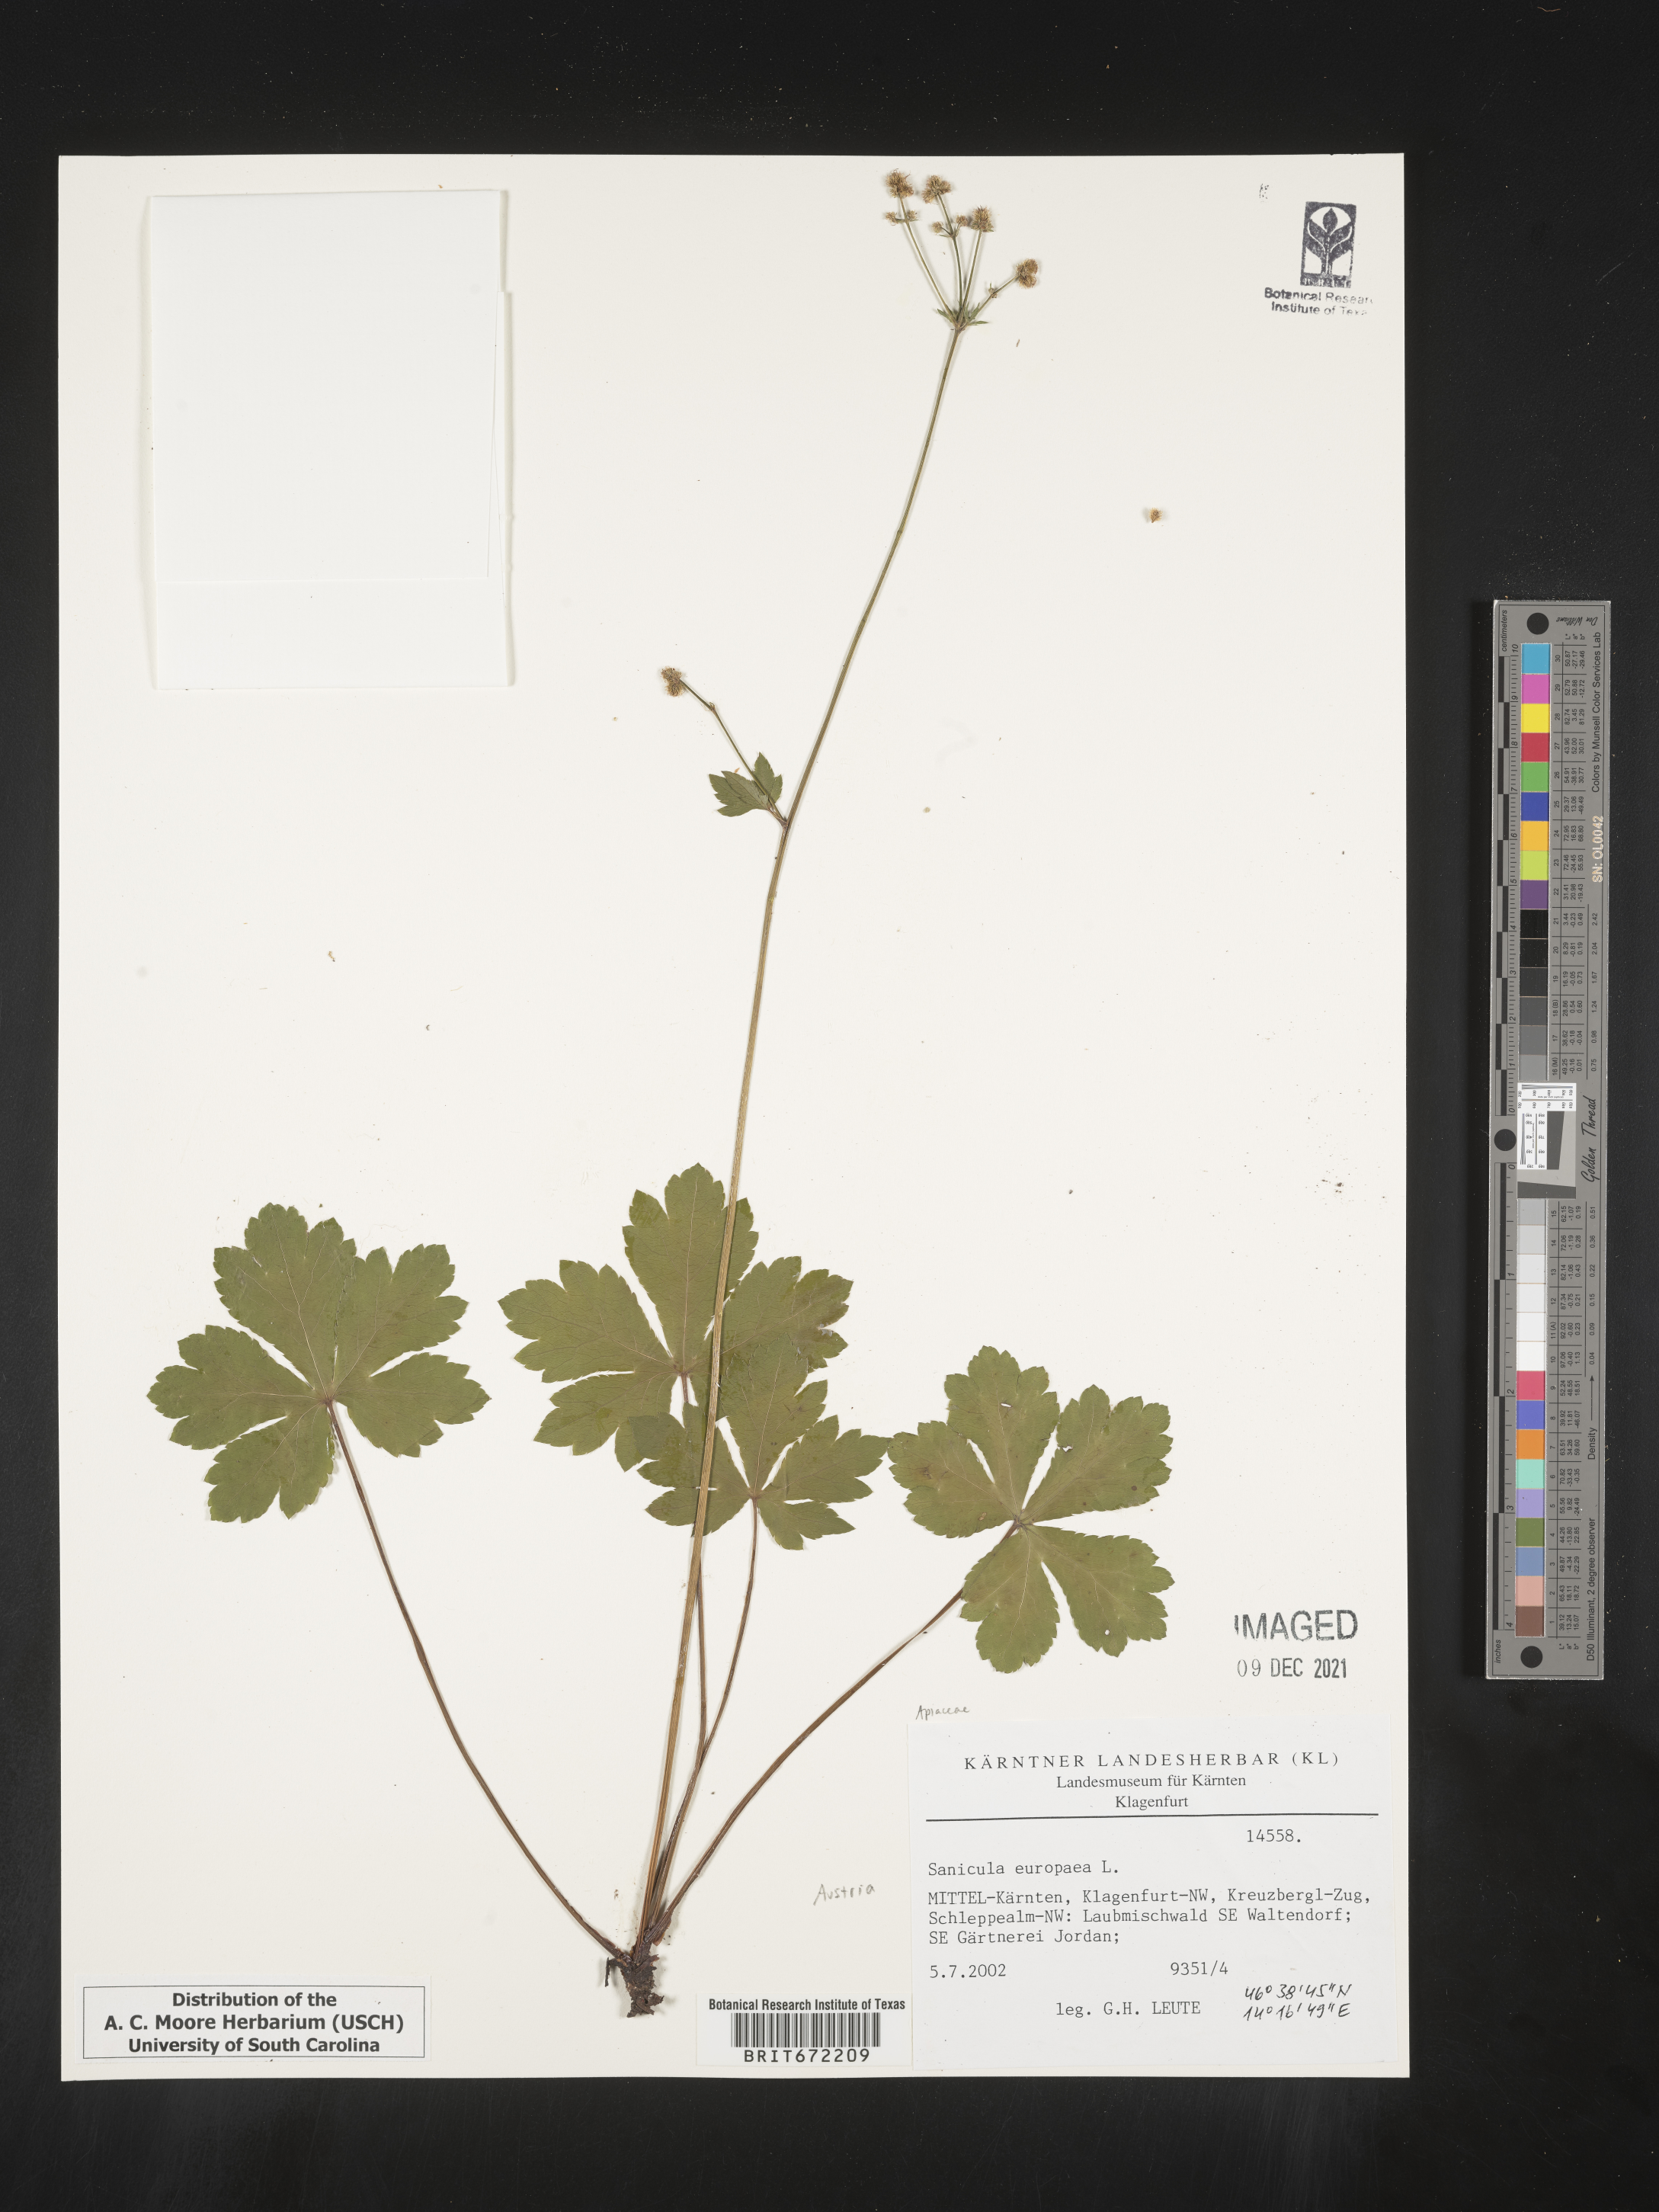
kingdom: Plantae
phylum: Tracheophyta
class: Magnoliopsida
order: Apiales
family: Apiaceae
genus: Sanicula
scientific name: Sanicula
